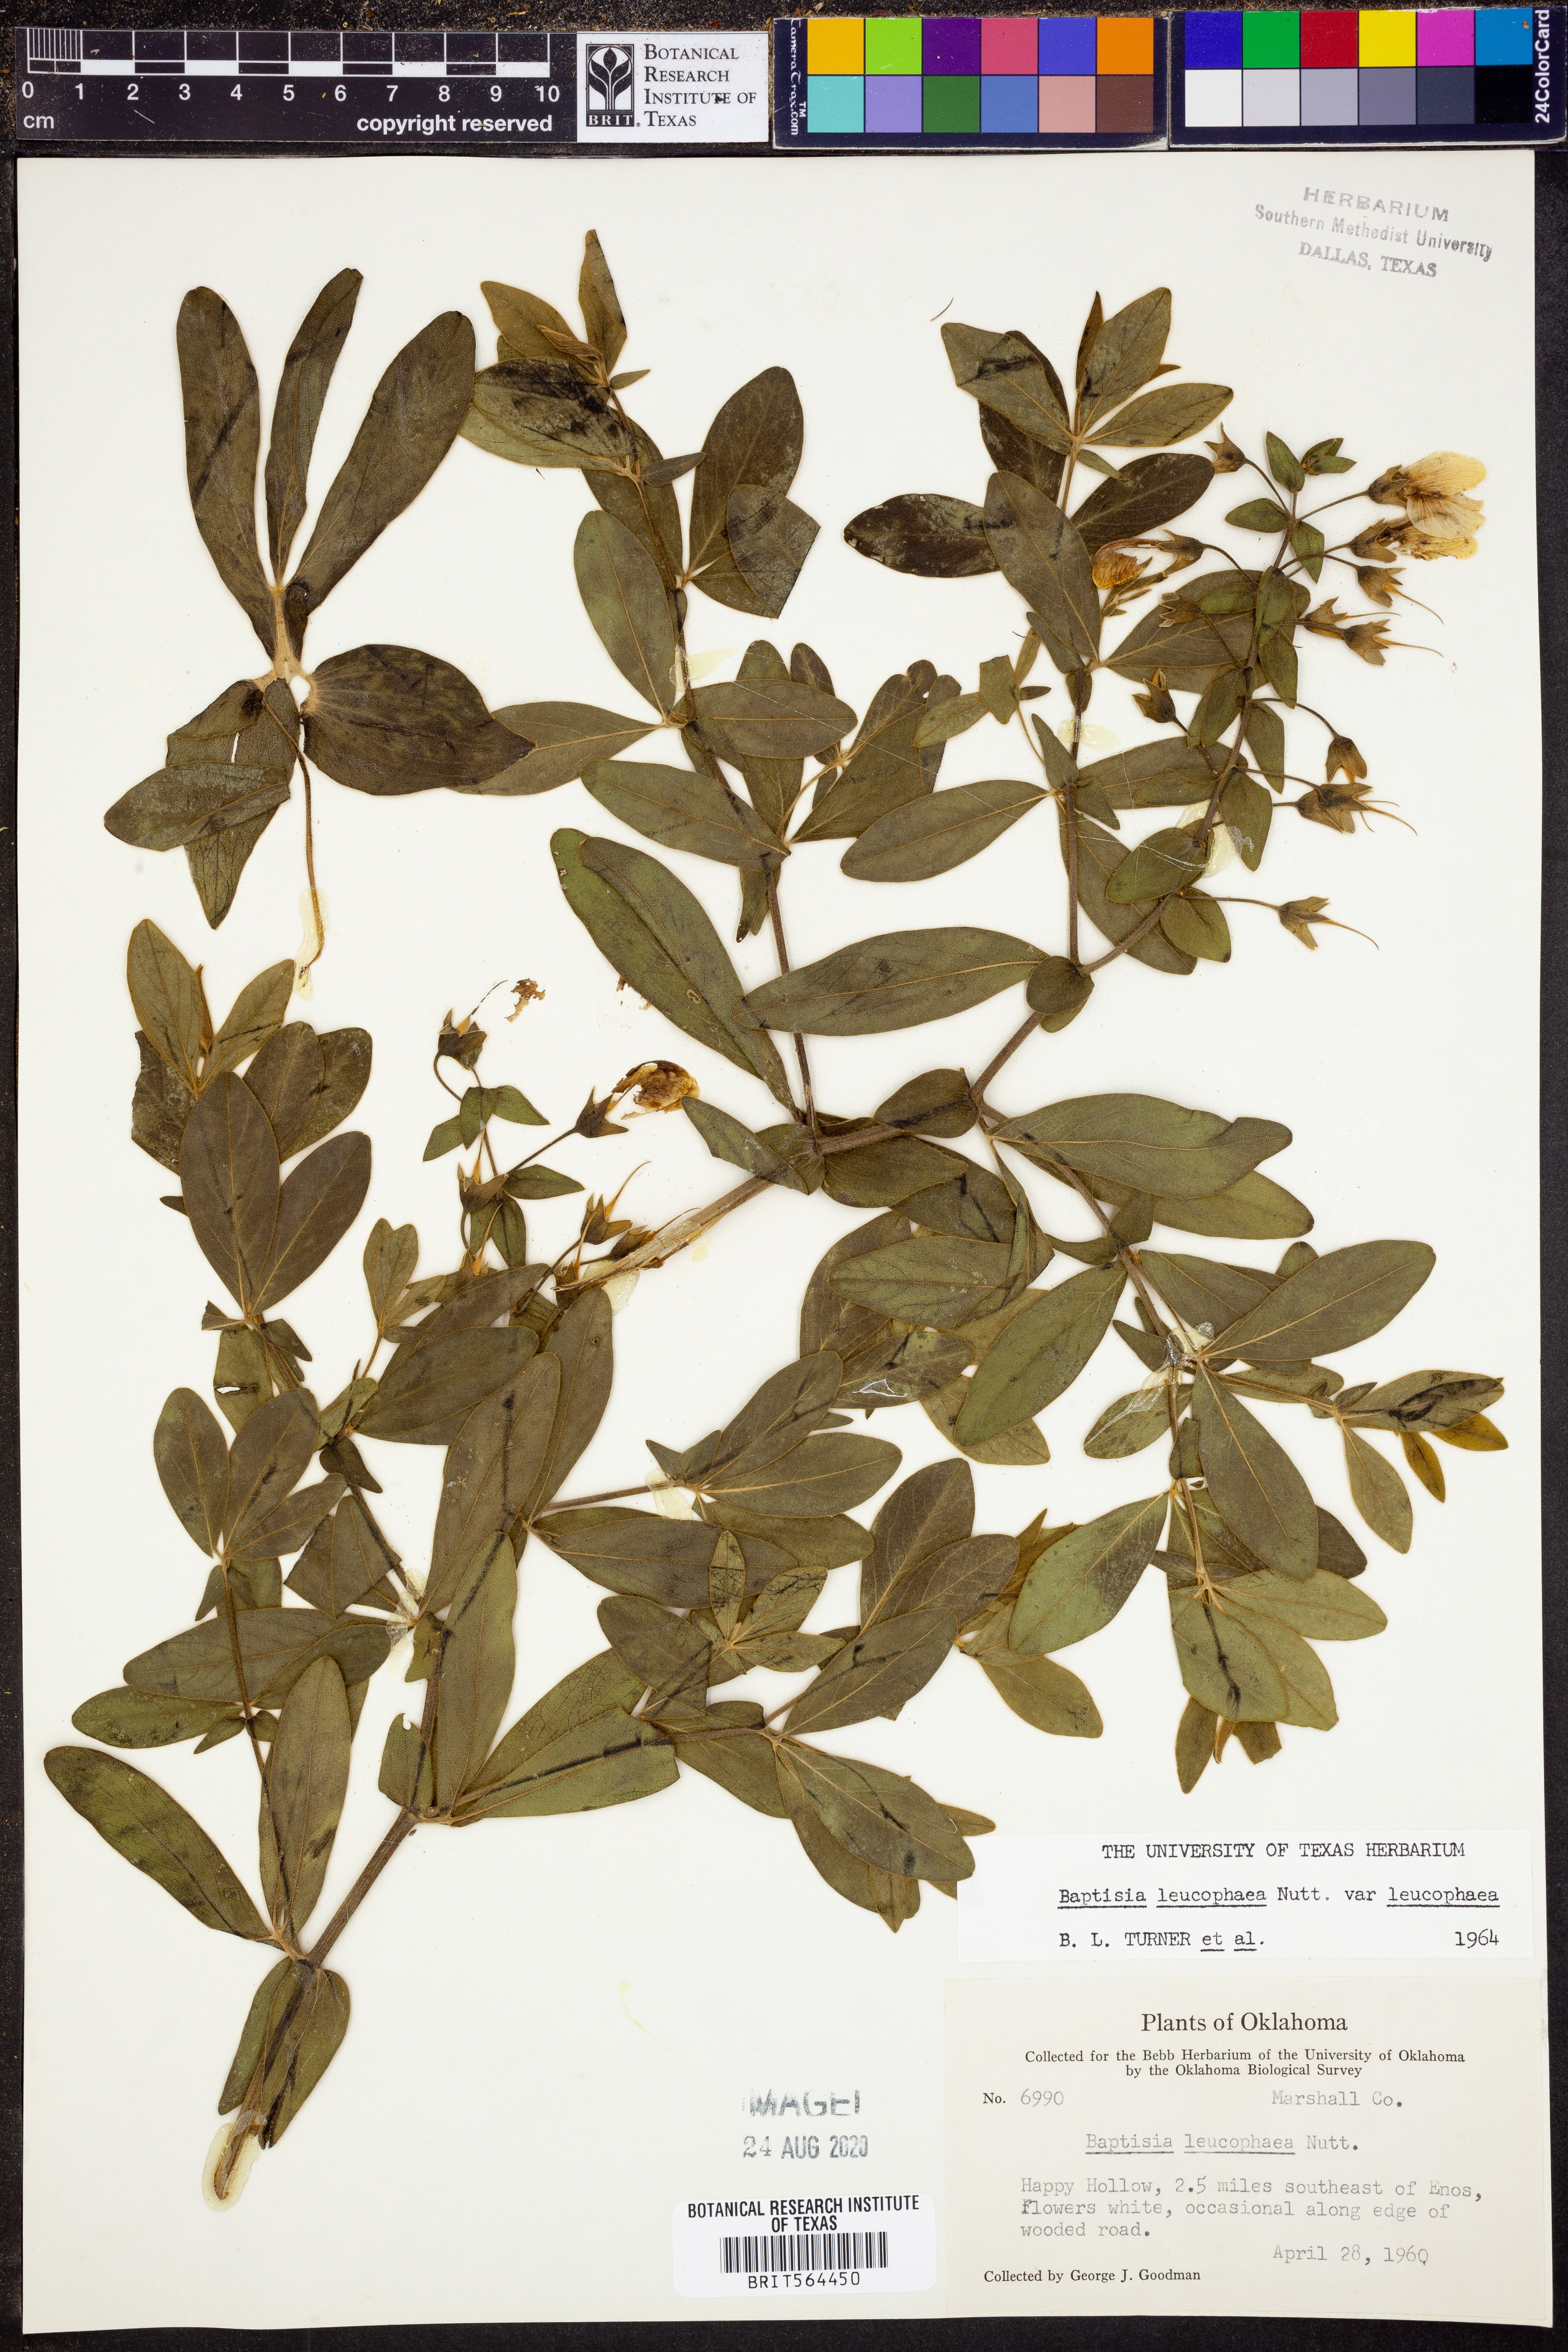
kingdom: Plantae
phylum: Tracheophyta
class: Magnoliopsida
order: Fabales
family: Fabaceae
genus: Baptisia
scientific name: Baptisia bracteata
